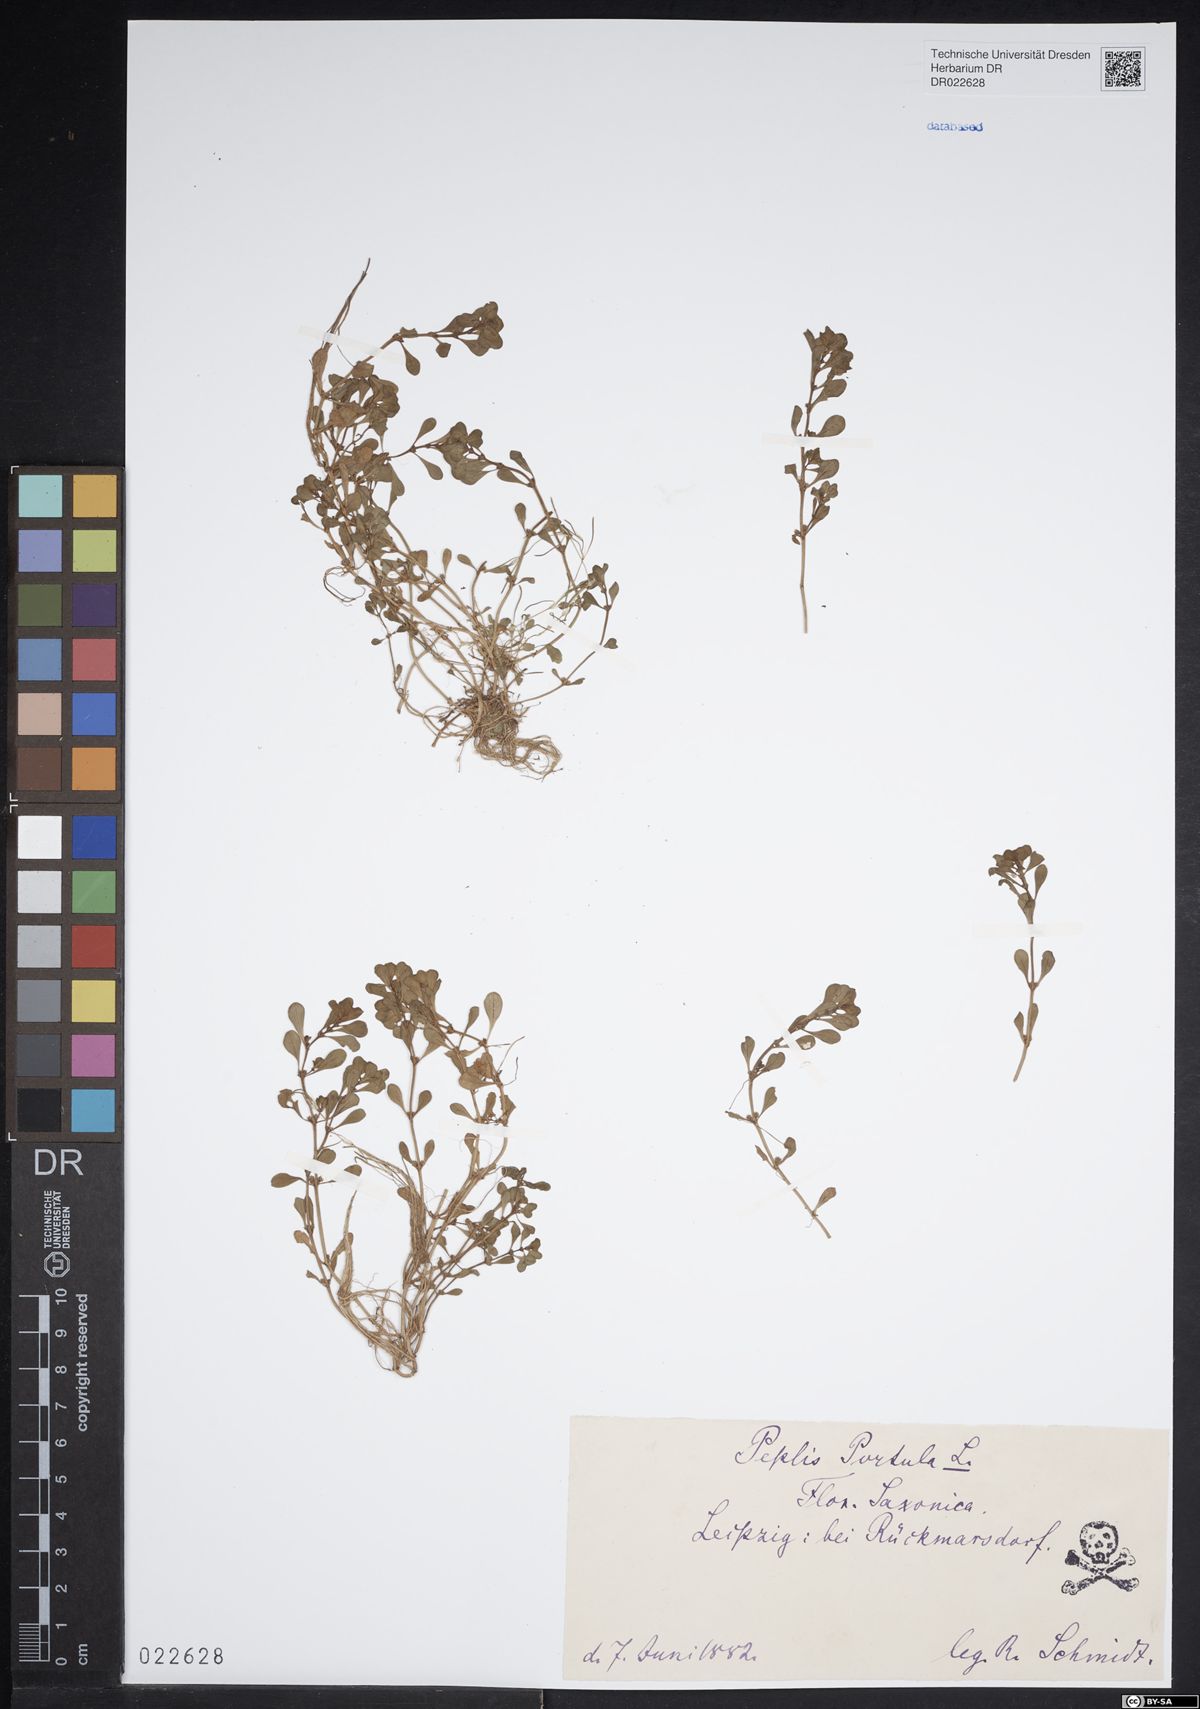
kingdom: Plantae
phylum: Tracheophyta
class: Magnoliopsida
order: Myrtales
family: Lythraceae
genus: Lythrum
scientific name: Lythrum portula
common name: Water purslane
